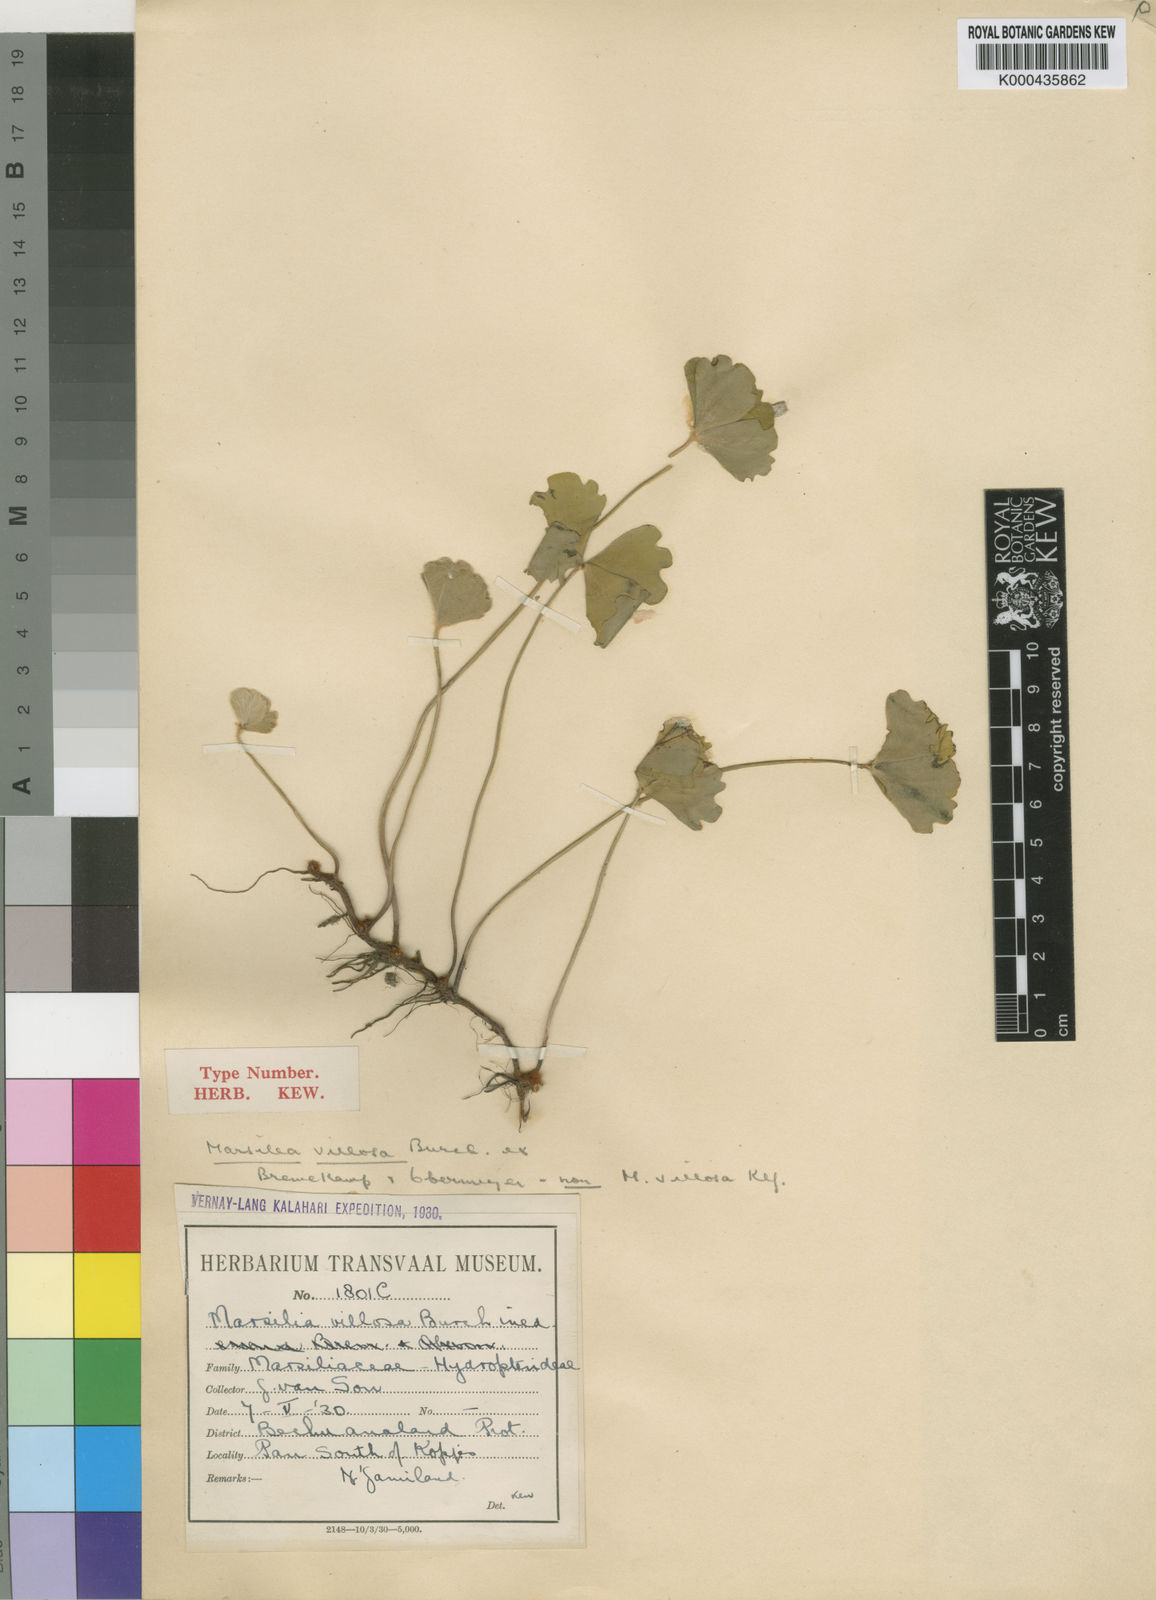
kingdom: Plantae
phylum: Tracheophyta
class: Polypodiopsida
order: Salviniales
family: Marsileaceae
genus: Marsilea
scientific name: Marsilea villifolia
